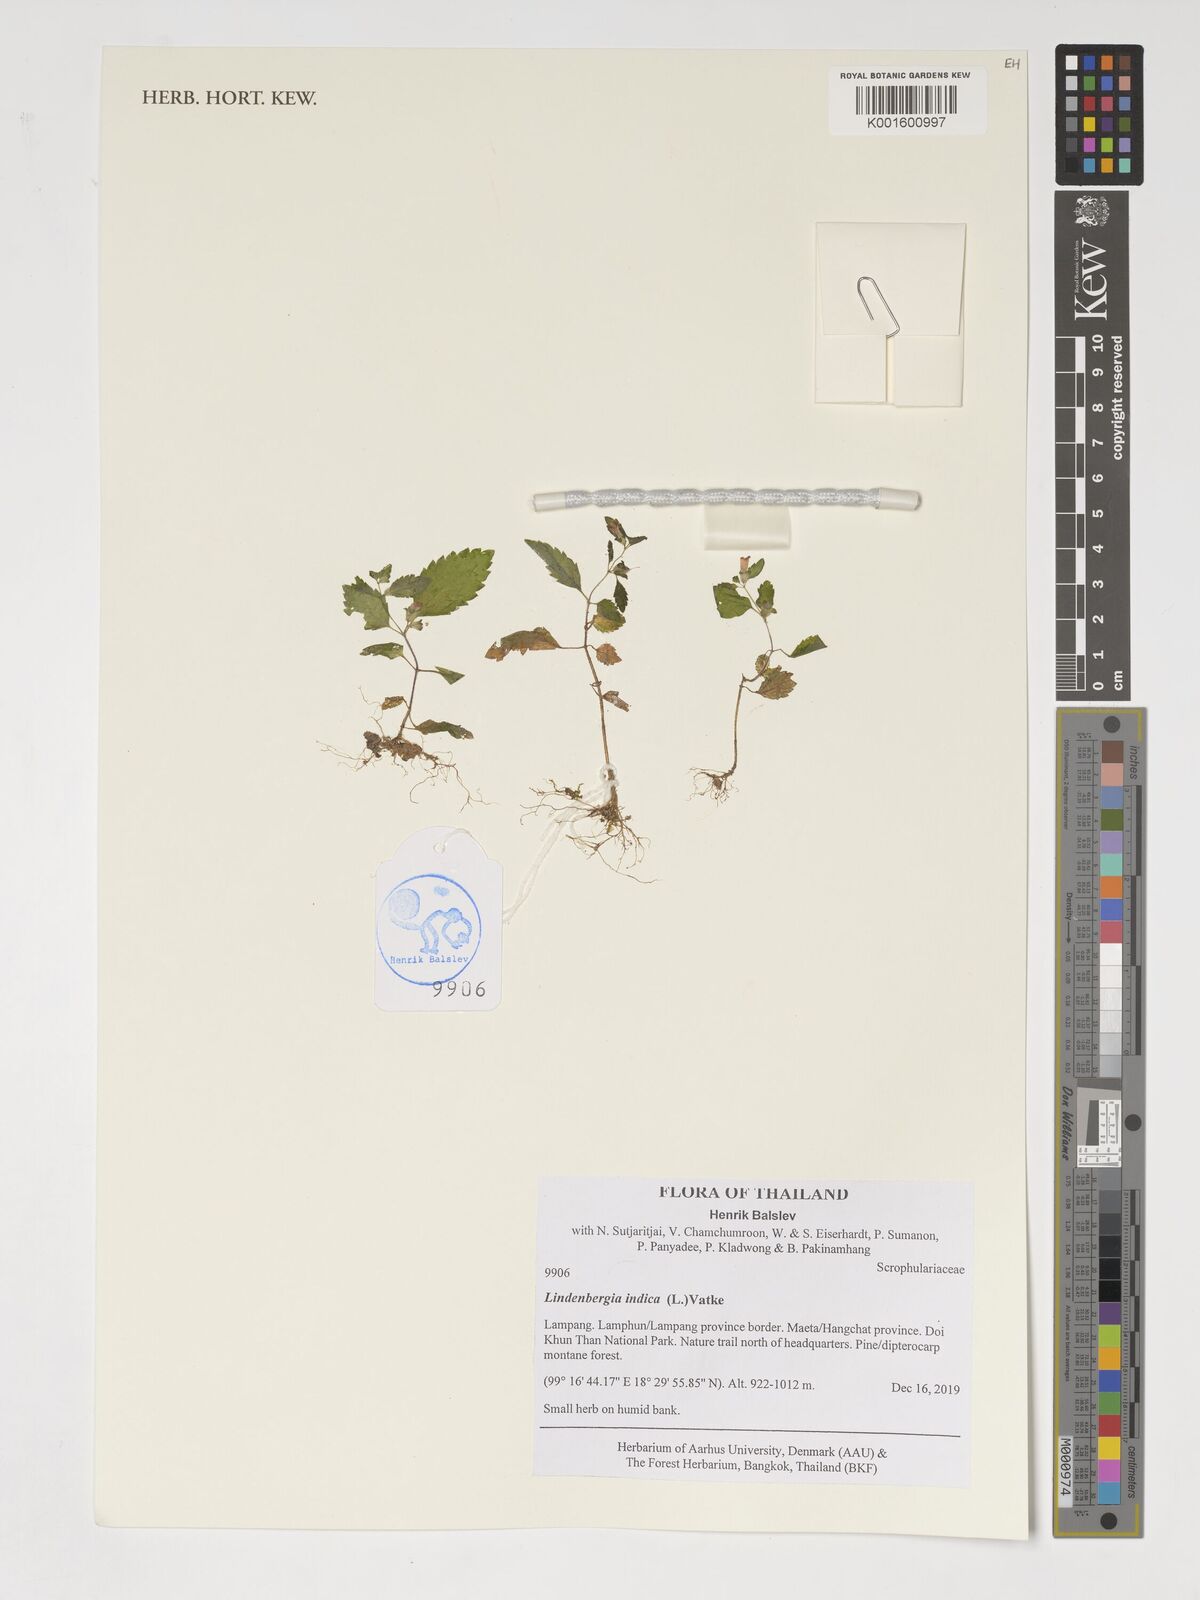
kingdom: Plantae
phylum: Tracheophyta
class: Magnoliopsida
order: Lamiales
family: Orobanchaceae
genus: Lindenbergia
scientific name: Lindenbergia indica
